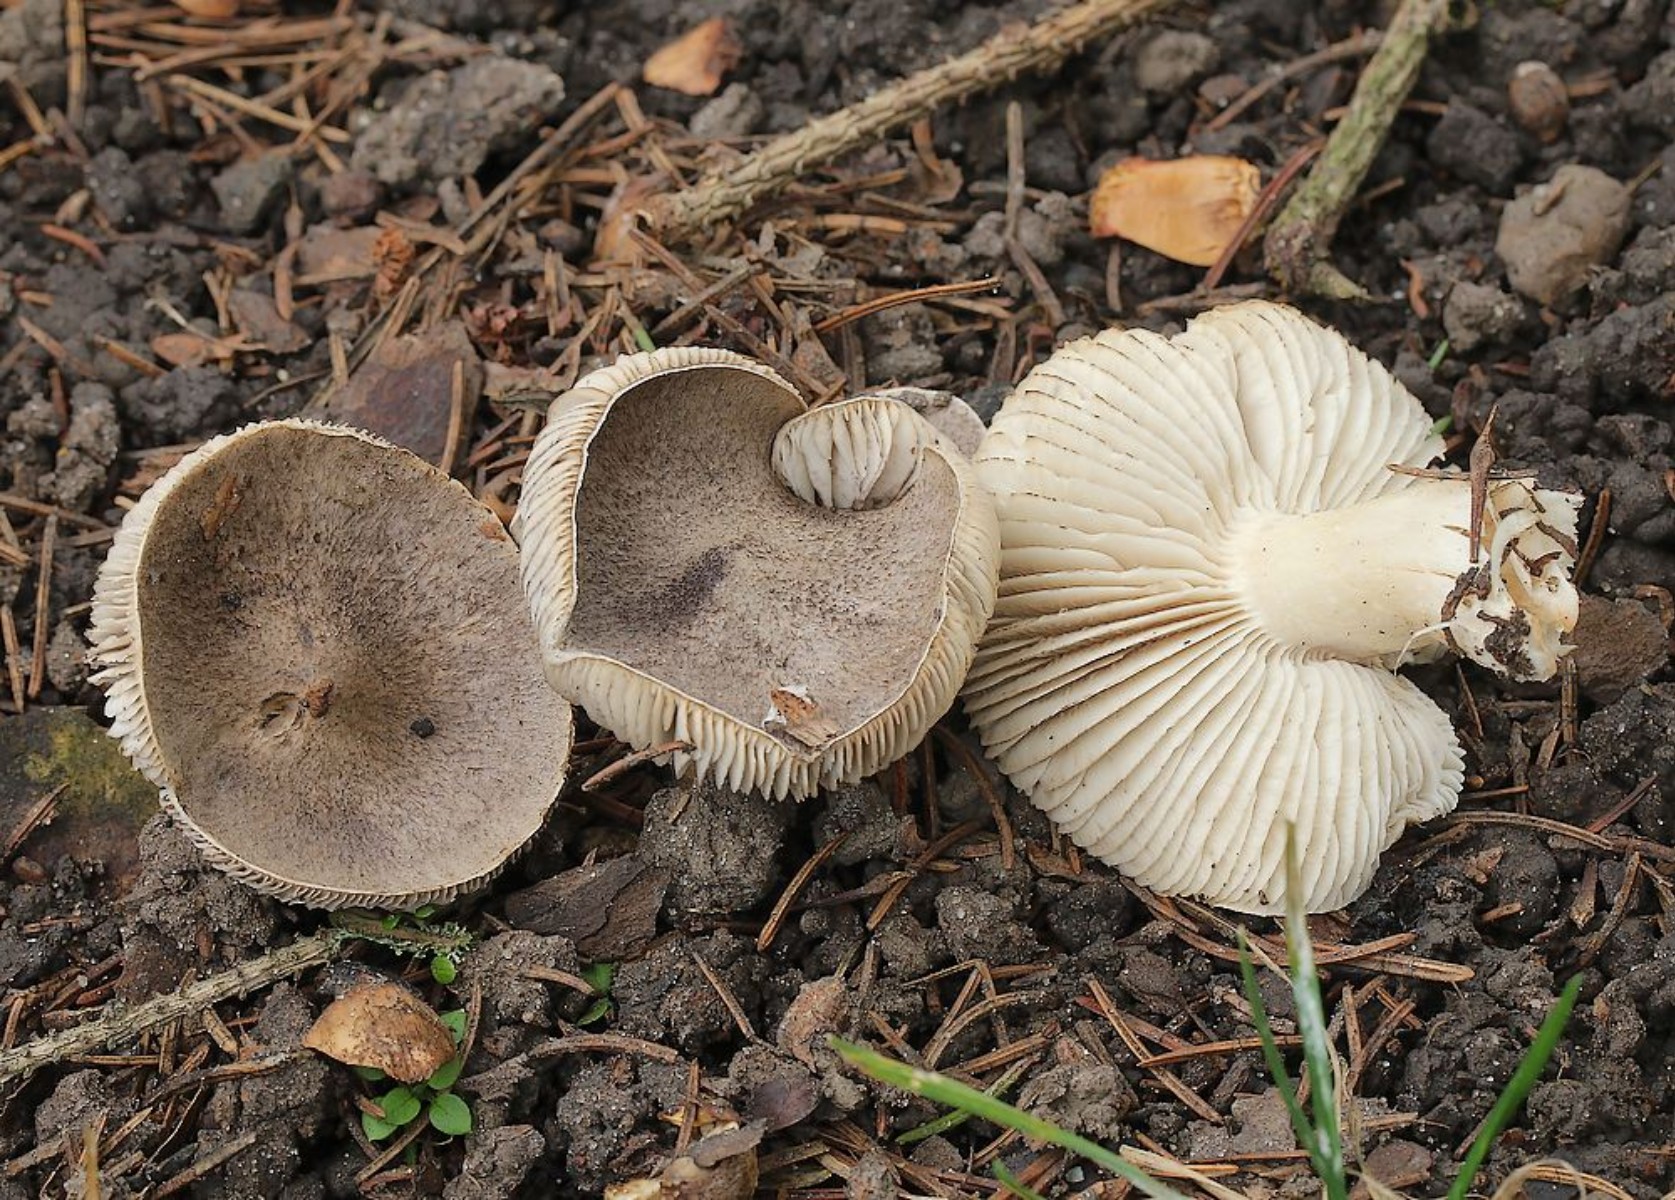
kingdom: Fungi
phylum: Basidiomycota
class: Agaricomycetes
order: Agaricales
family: Tricholomataceae
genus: Tricholoma
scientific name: Tricholoma terreum
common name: jordfarvet ridderhat
